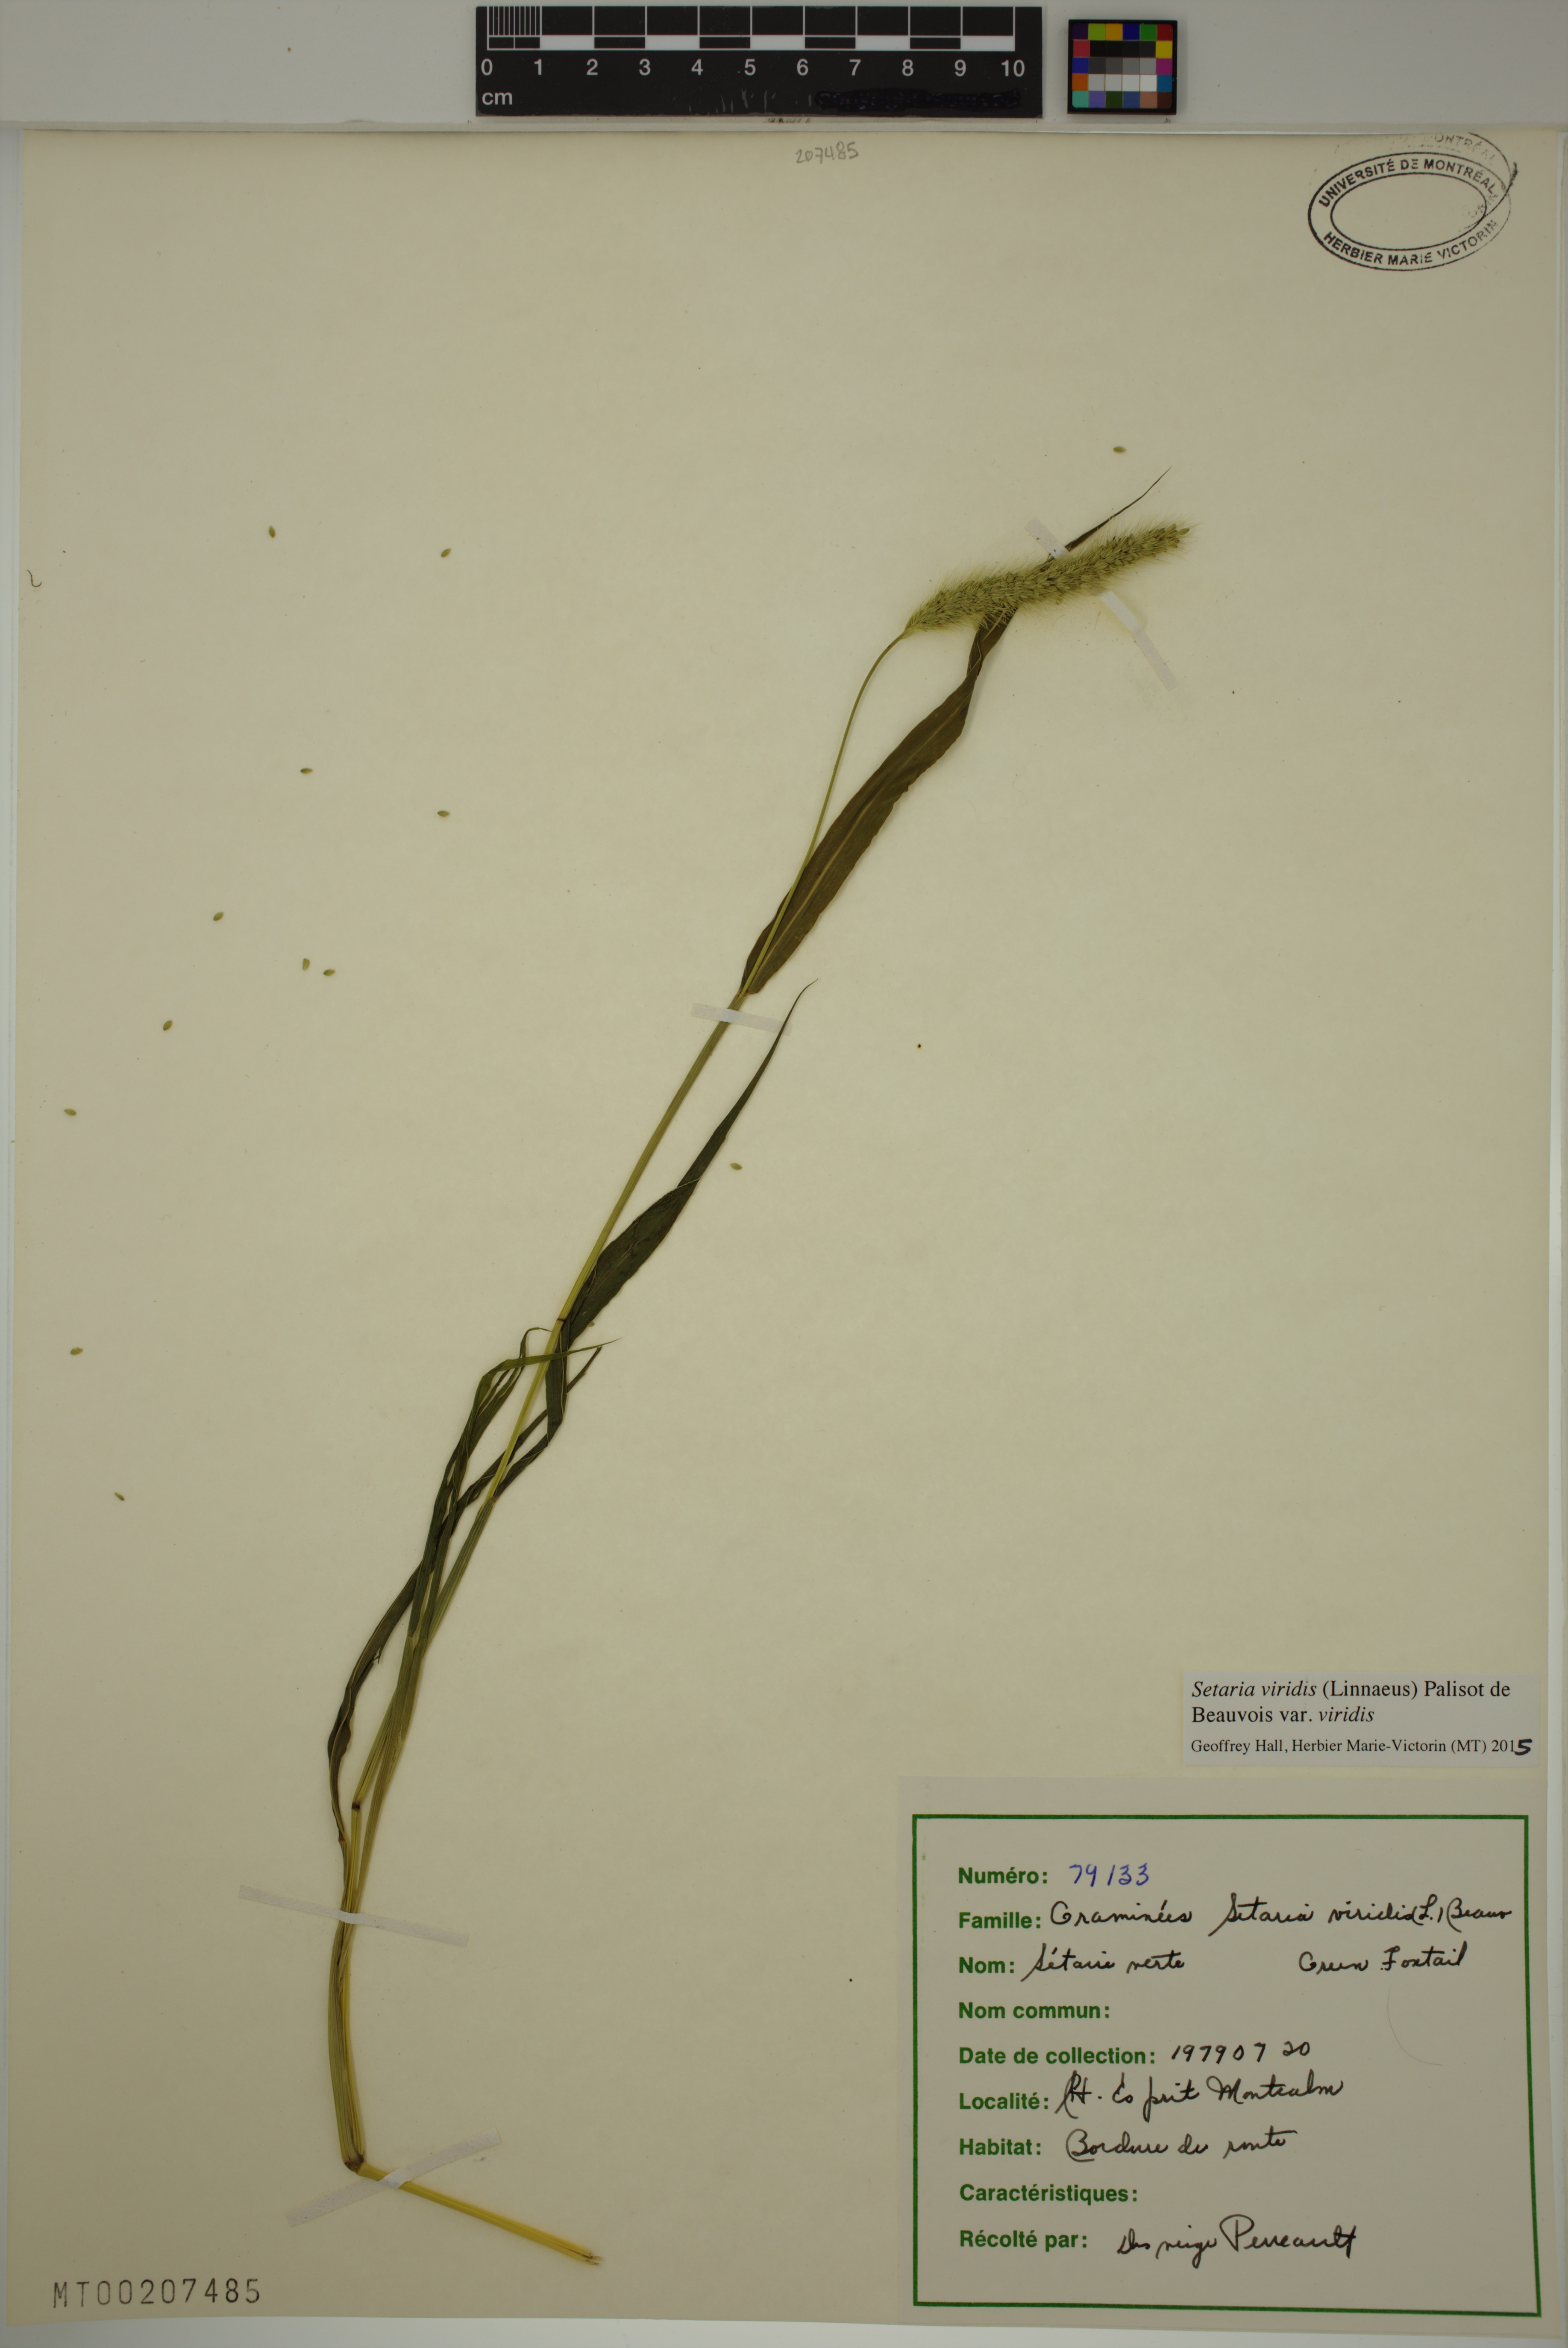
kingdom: Plantae
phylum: Tracheophyta
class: Liliopsida
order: Poales
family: Poaceae
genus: Setaria
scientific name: Setaria viridis
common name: Green bristlegrass
